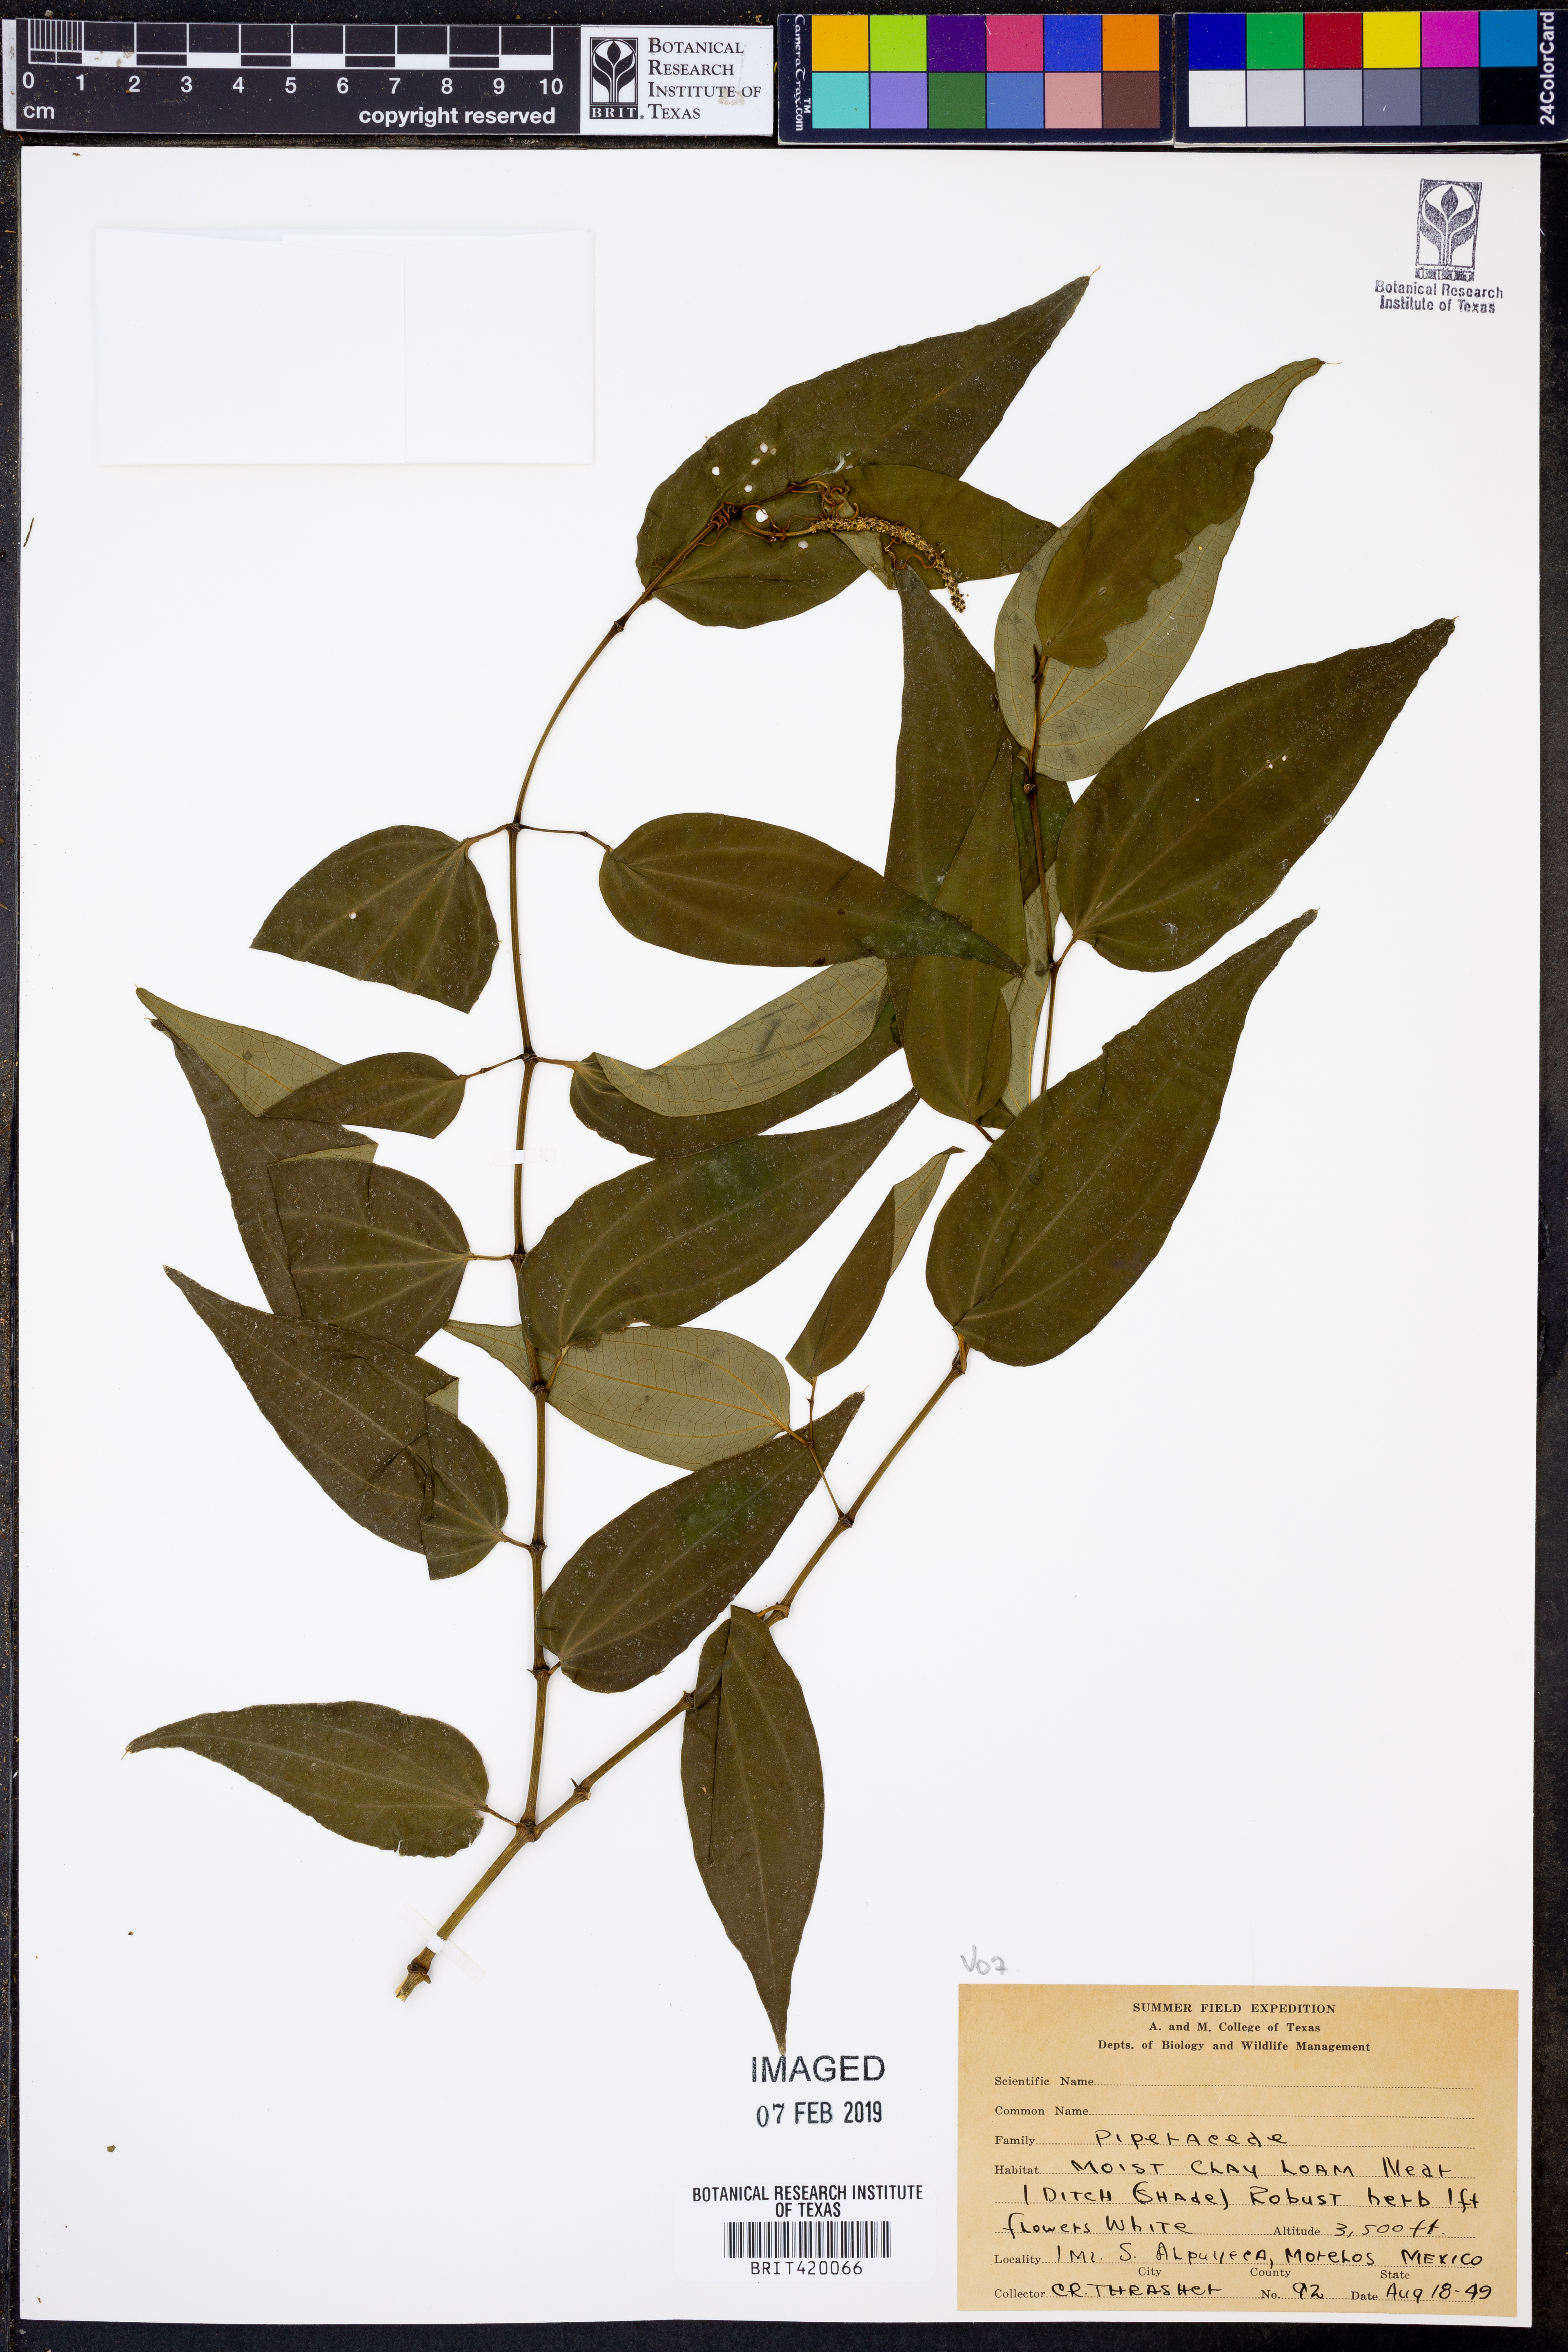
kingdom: Plantae
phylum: Tracheophyta
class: Magnoliopsida
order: Piperales
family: Piperaceae
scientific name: Piperaceae
